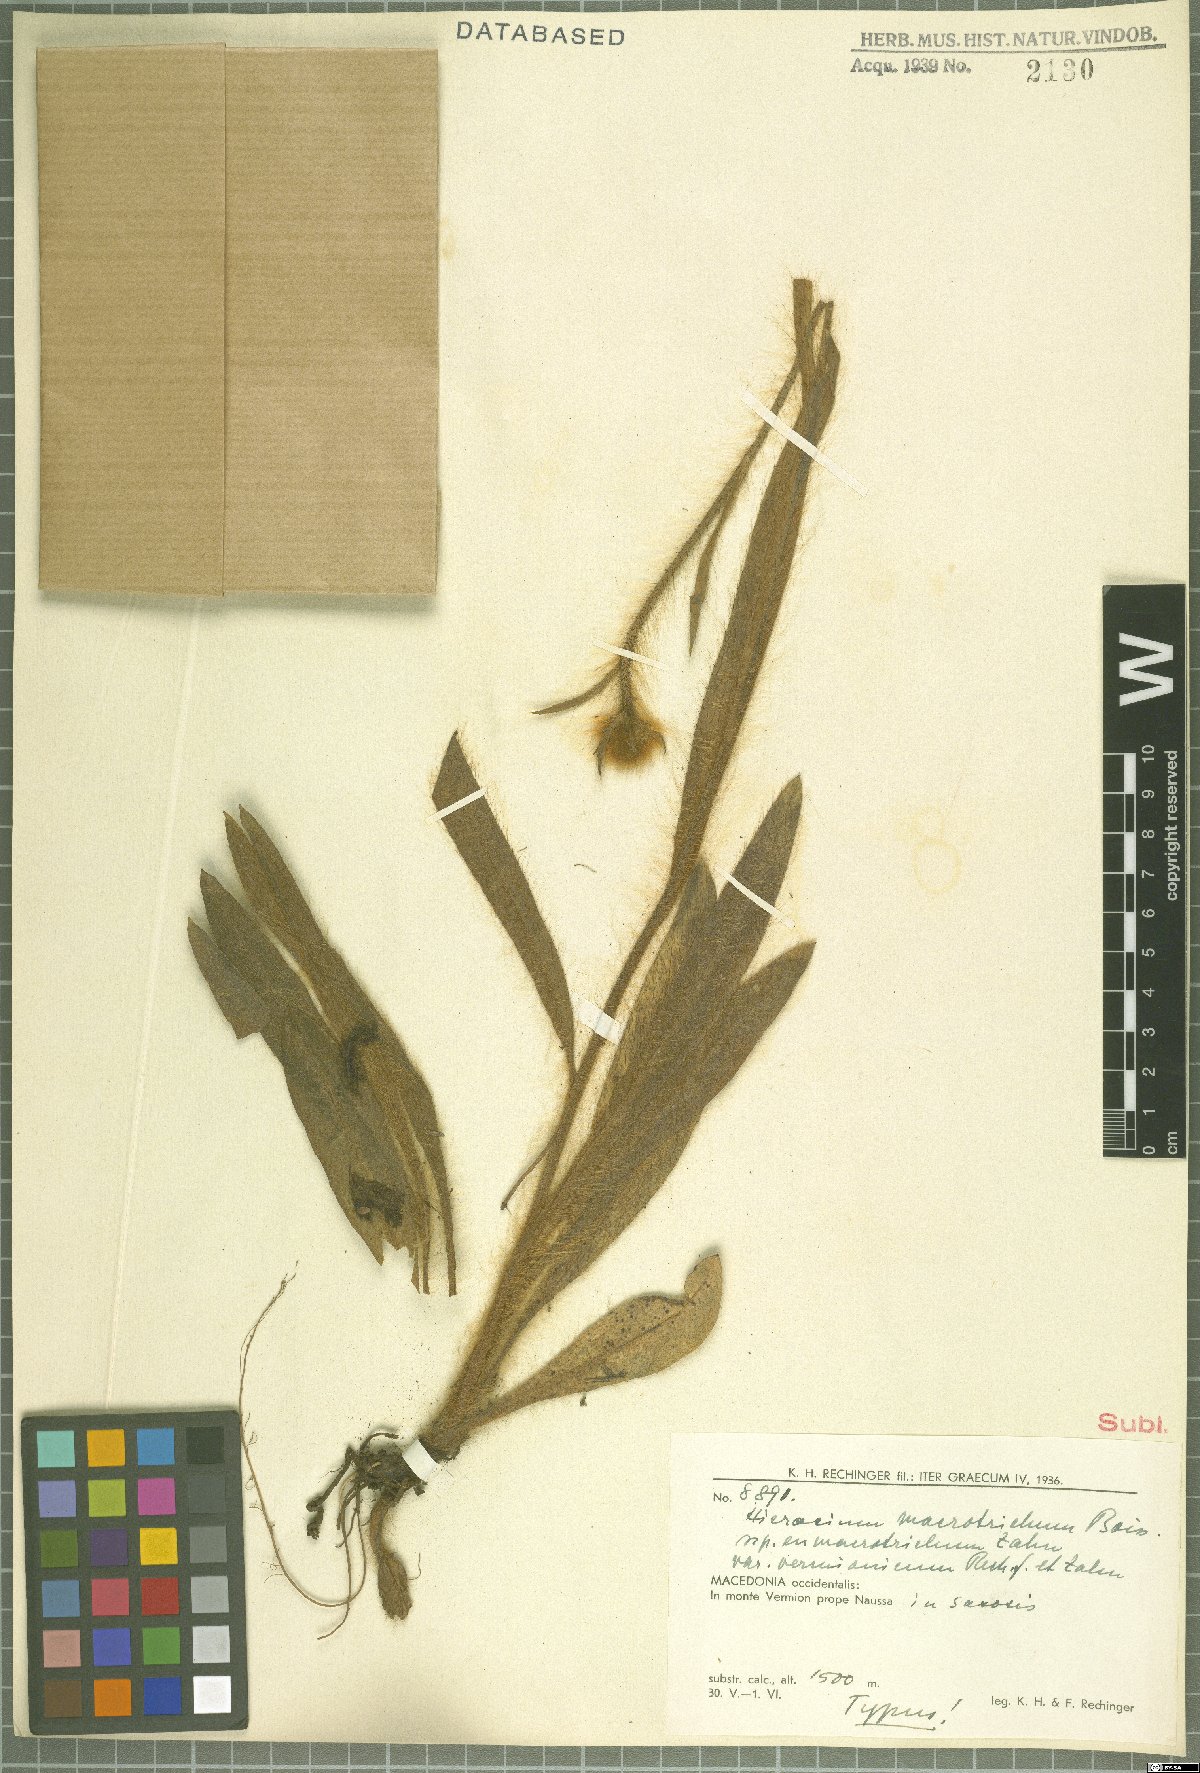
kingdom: Plantae
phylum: Tracheophyta
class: Magnoliopsida
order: Asterales
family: Asteraceae
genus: Pilosella
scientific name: Pilosella macrotricha
